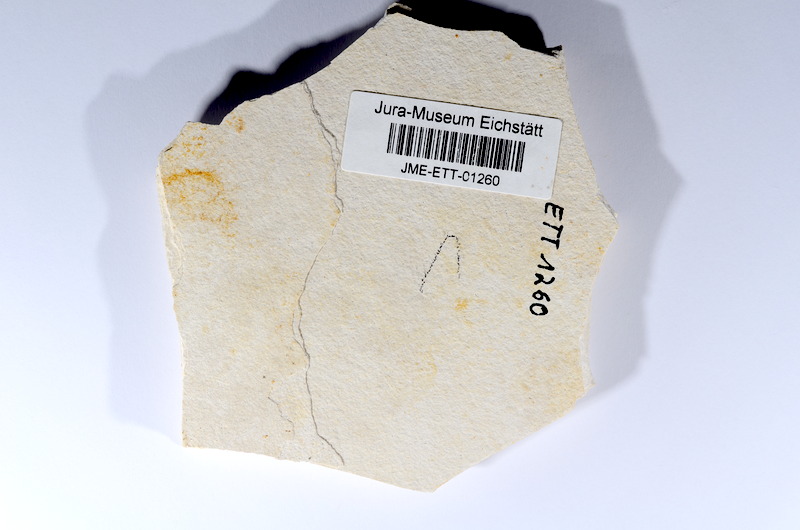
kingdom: Animalia
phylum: Chordata
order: Salmoniformes
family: Orthogonikleithridae
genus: Orthogonikleithrus
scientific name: Orthogonikleithrus hoelli
